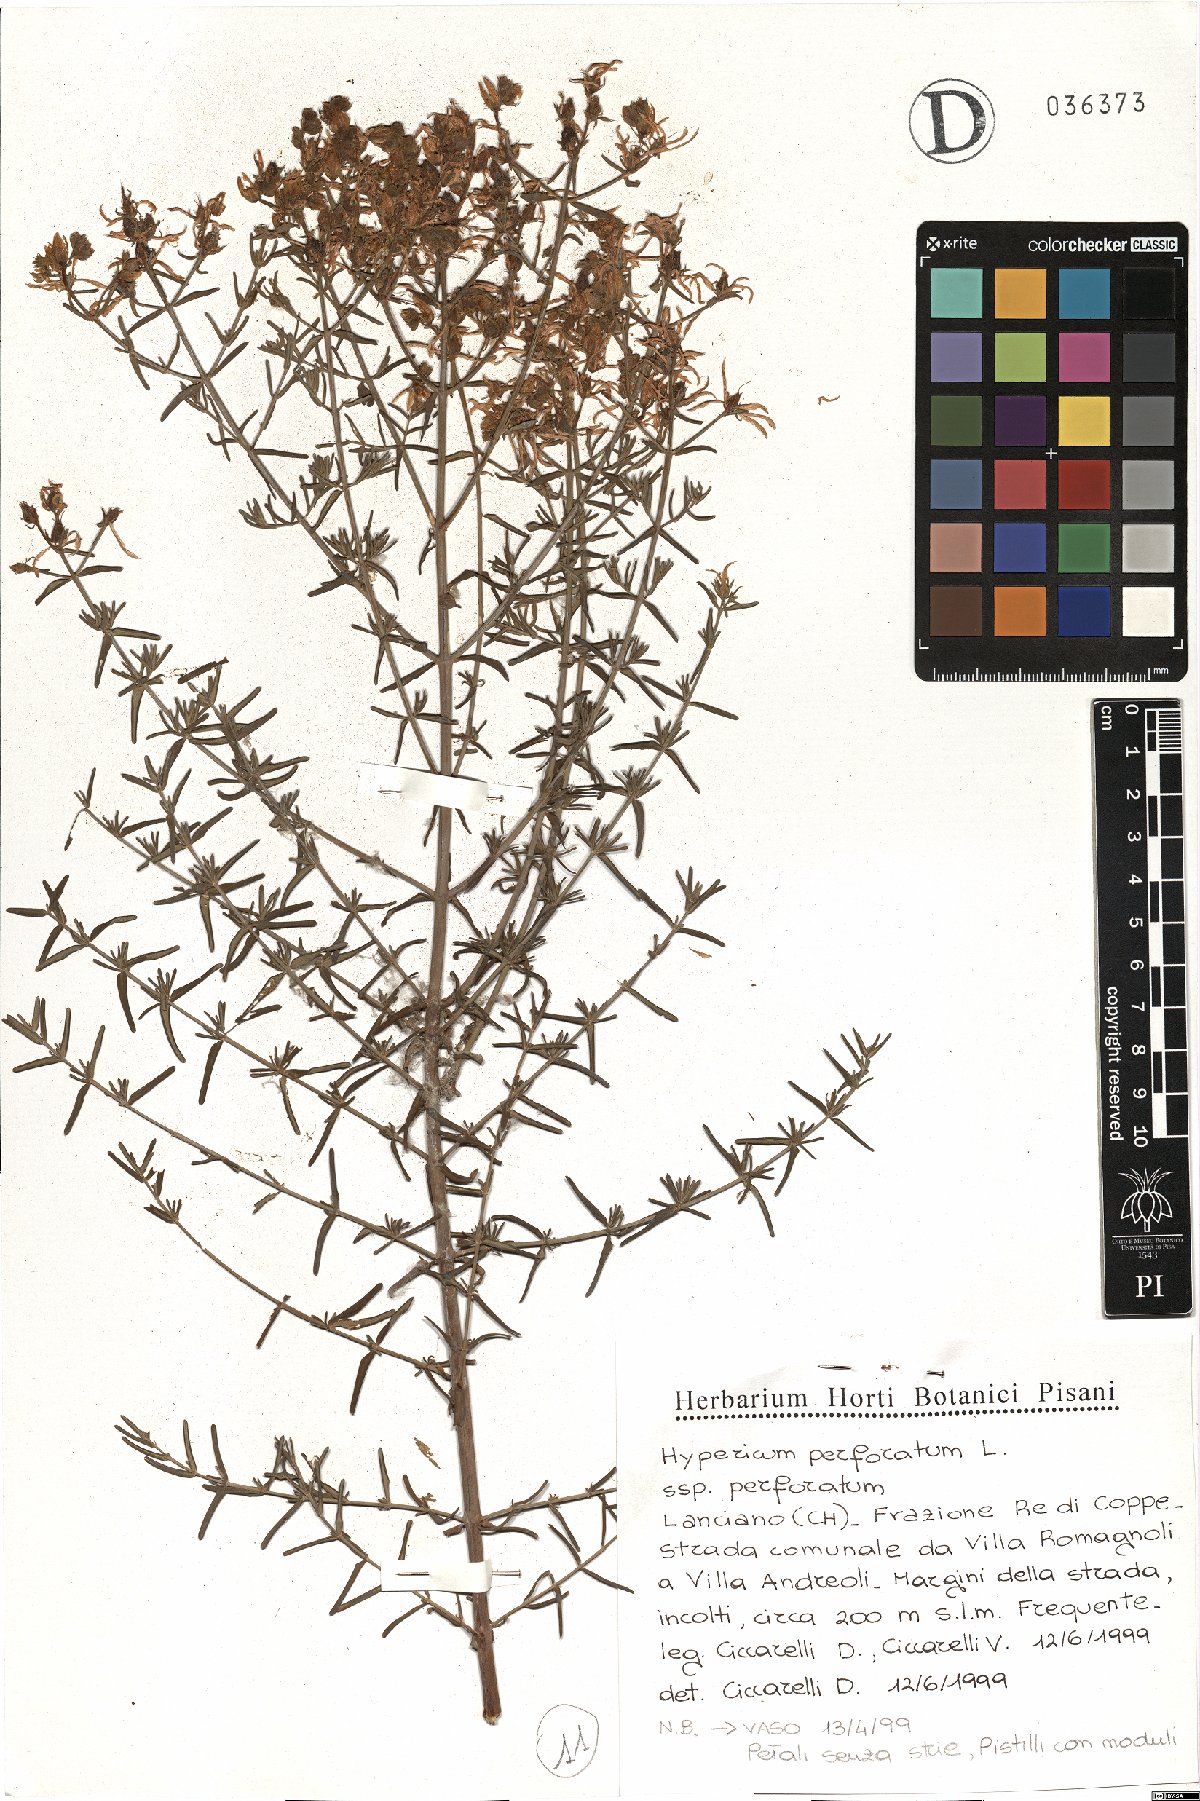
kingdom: Plantae
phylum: Tracheophyta
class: Magnoliopsida
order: Malpighiales
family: Hypericaceae
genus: Hypericum
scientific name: Hypericum perforatum
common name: Common st. johnswort
